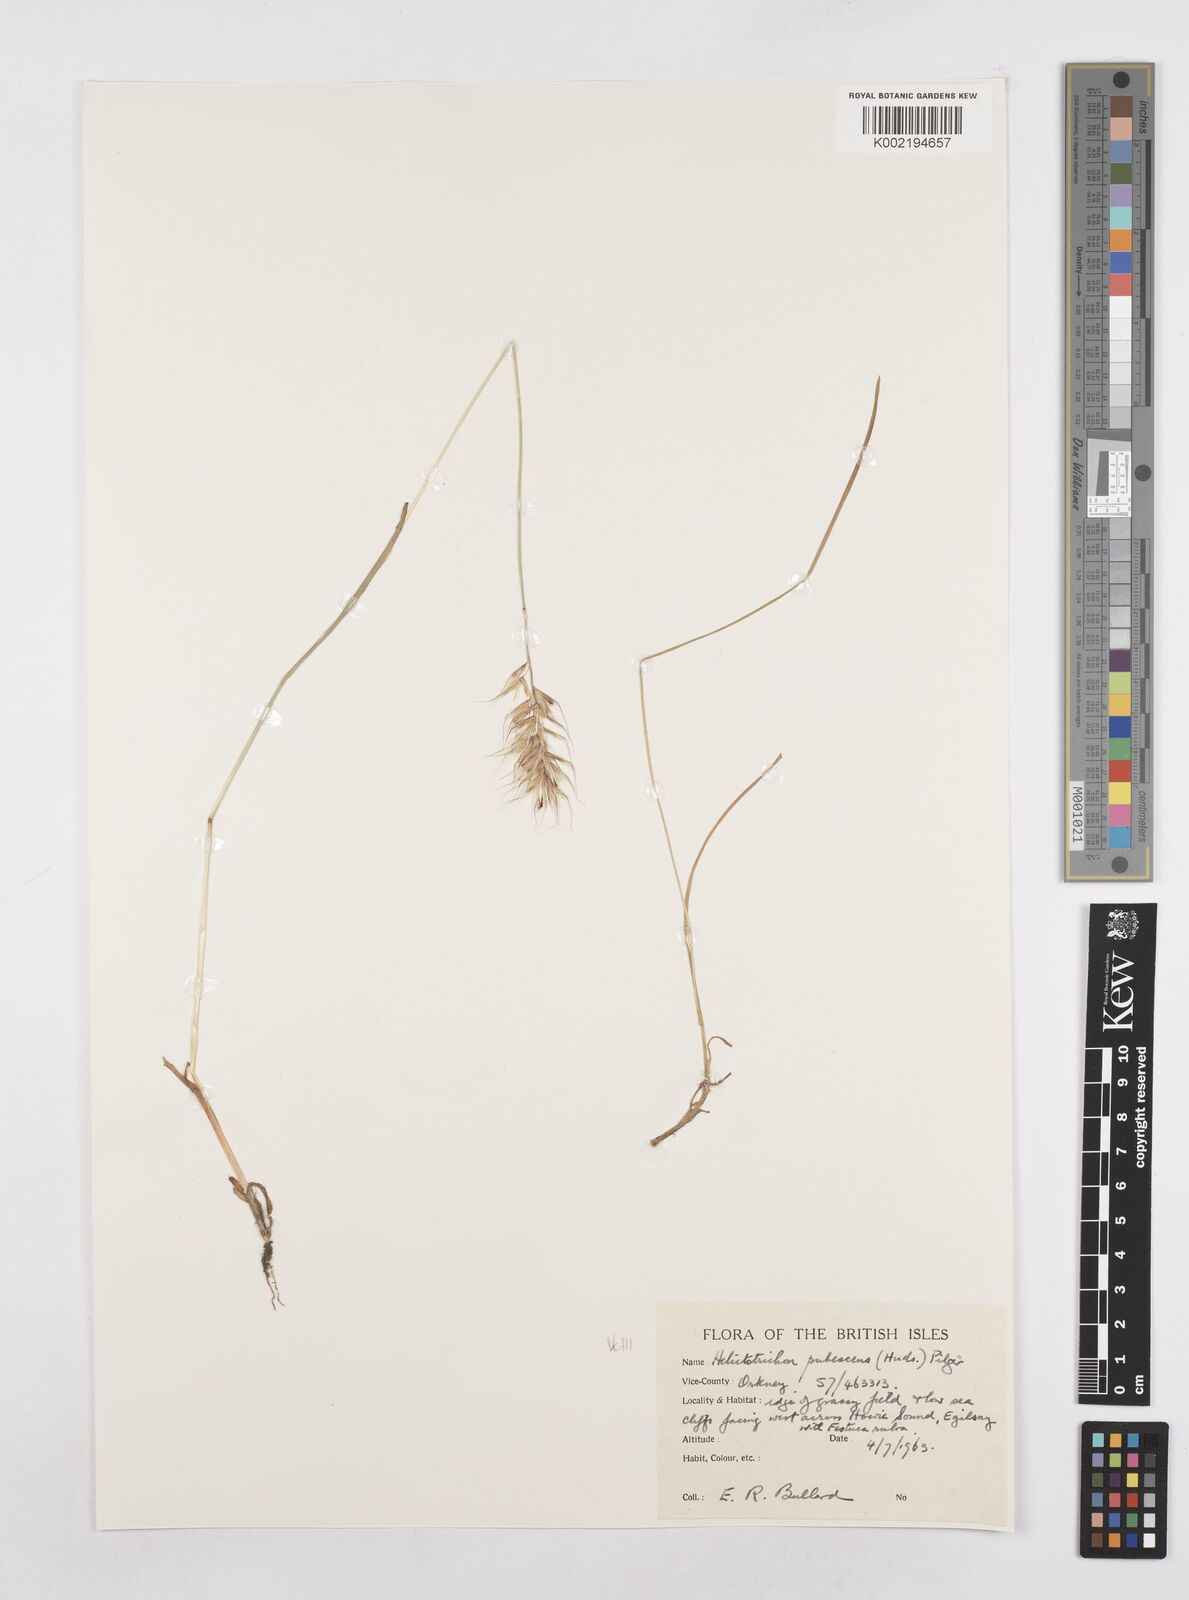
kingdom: Plantae
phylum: Tracheophyta
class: Liliopsida
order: Poales
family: Poaceae
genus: Avenula
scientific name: Avenula pubescens
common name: Downy alpine oatgrass
